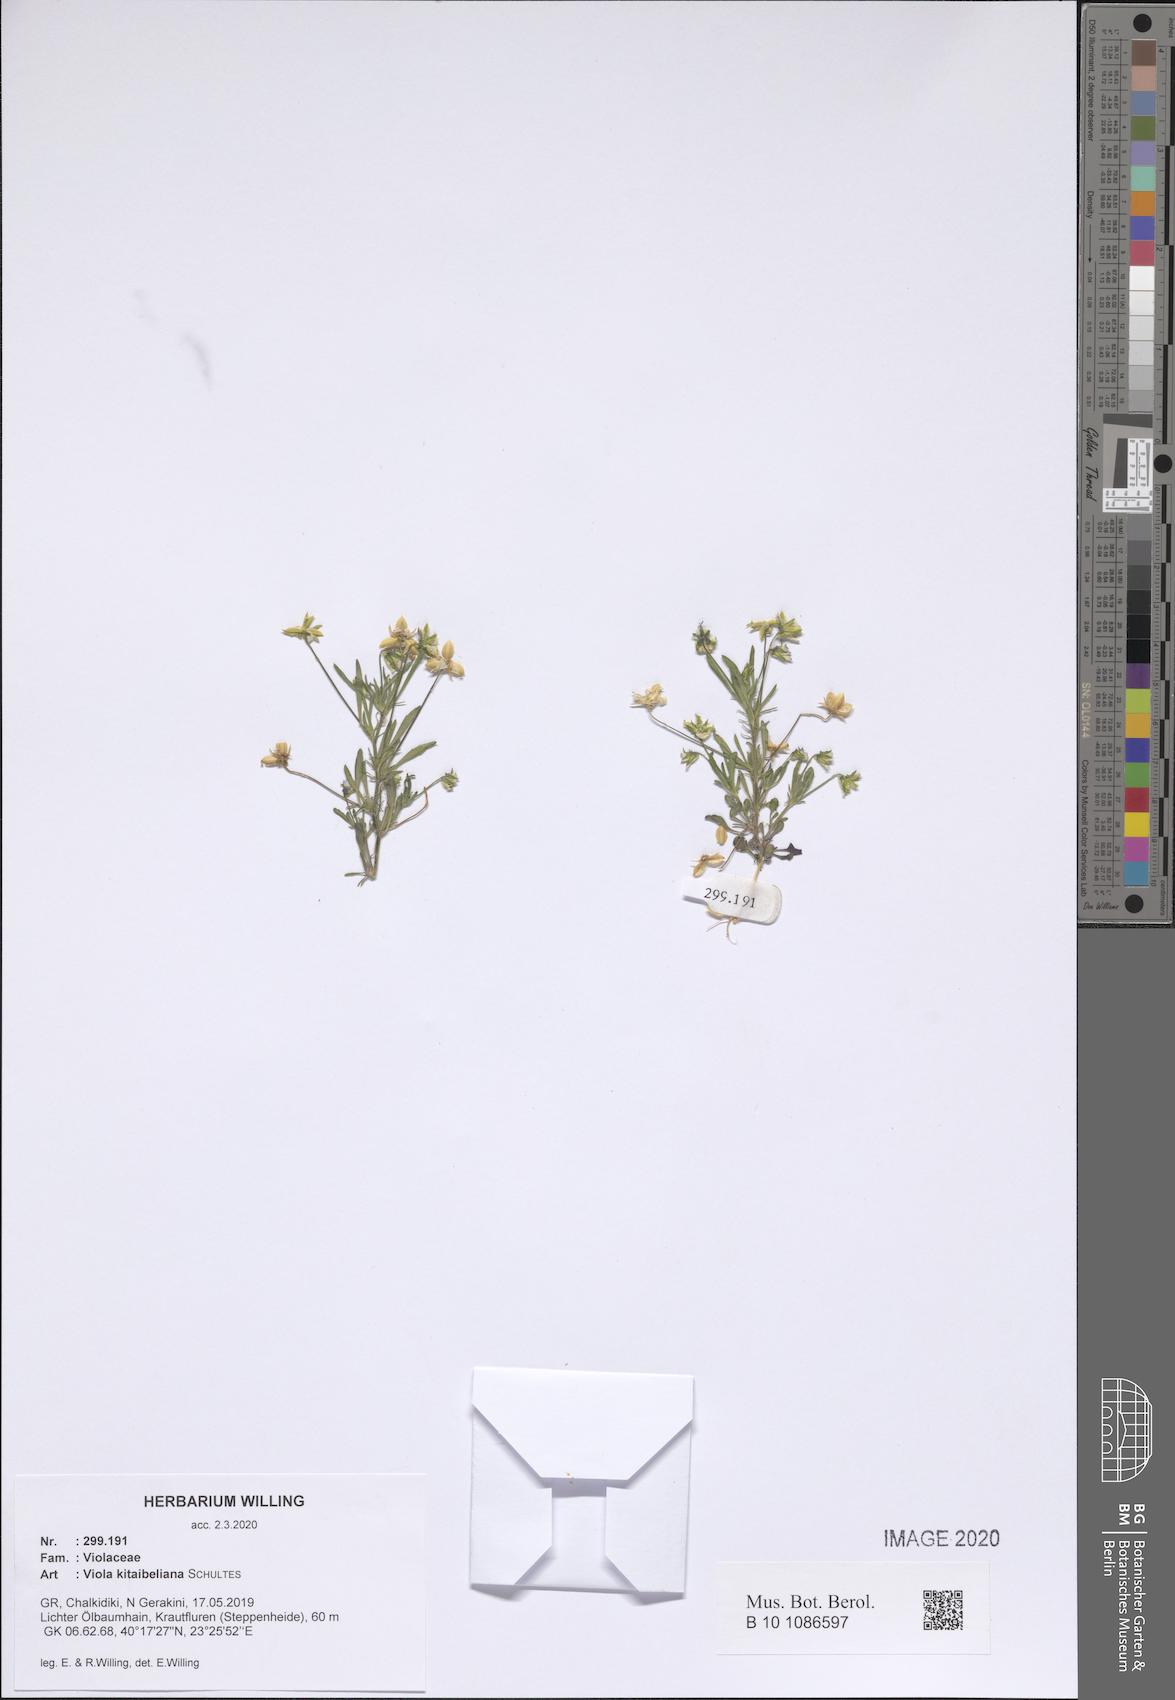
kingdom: Plantae
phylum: Tracheophyta
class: Magnoliopsida
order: Malpighiales
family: Violaceae
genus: Viola
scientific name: Viola kitaibeliana
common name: Dwarf pansy
